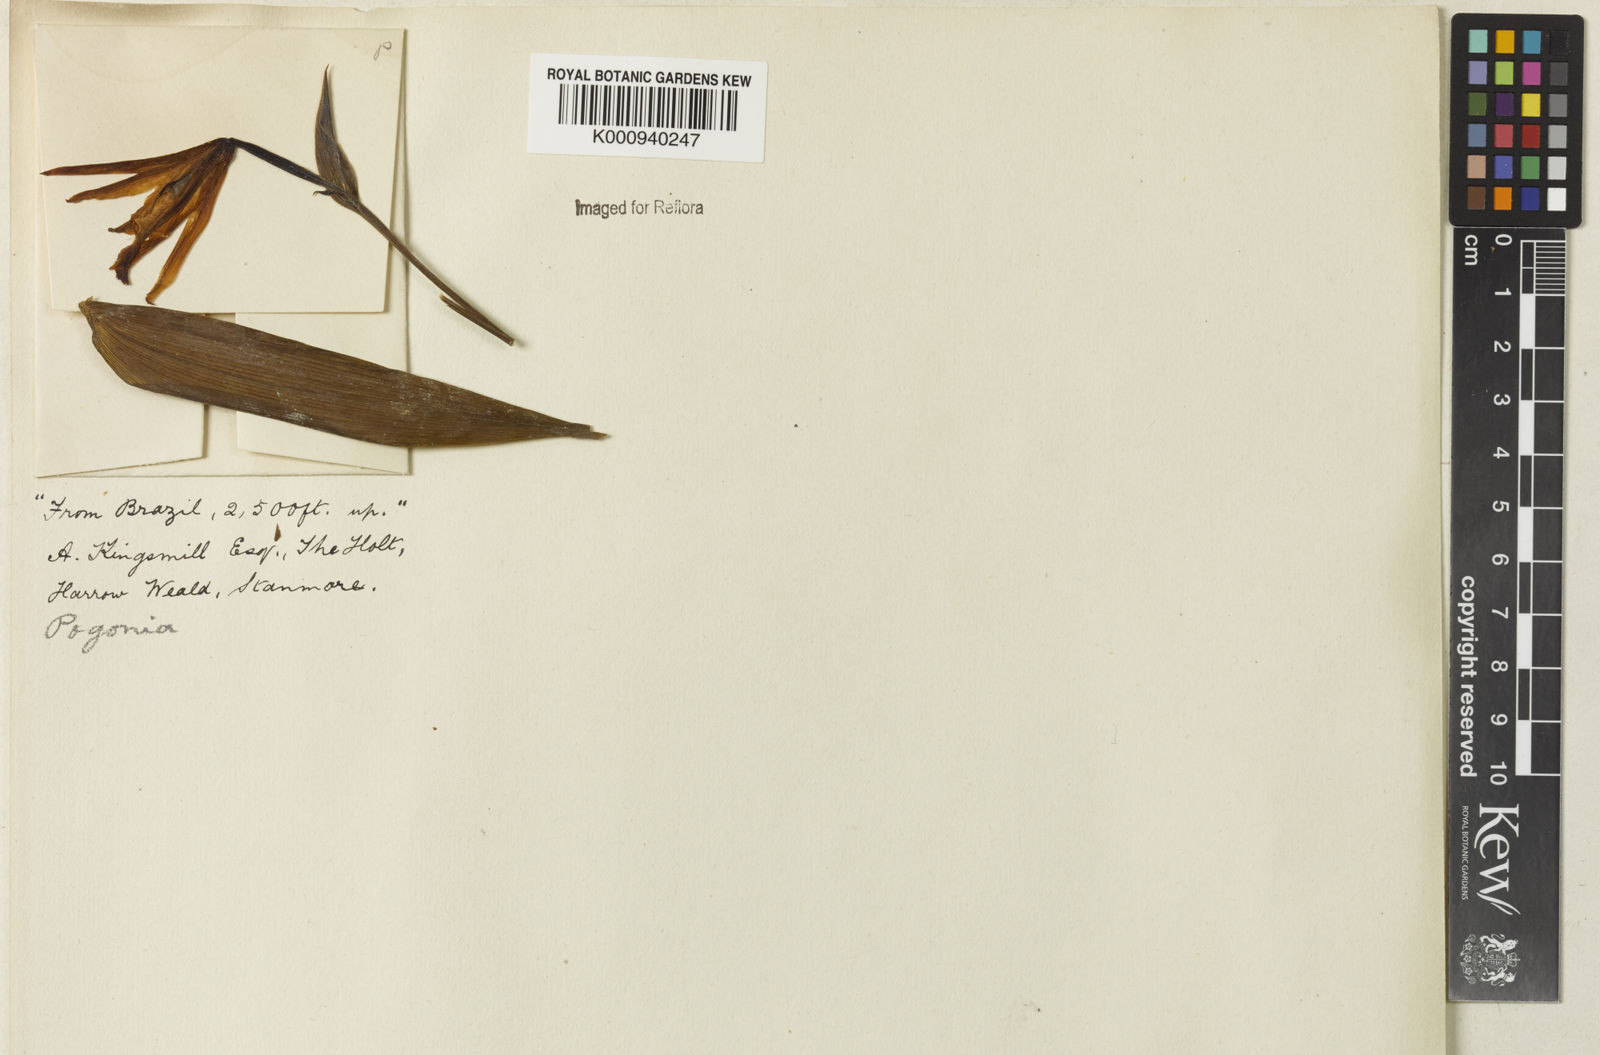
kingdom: Plantae
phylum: Tracheophyta
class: Liliopsida
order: Asparagales
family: Orchidaceae
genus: Cleistes
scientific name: Cleistes
